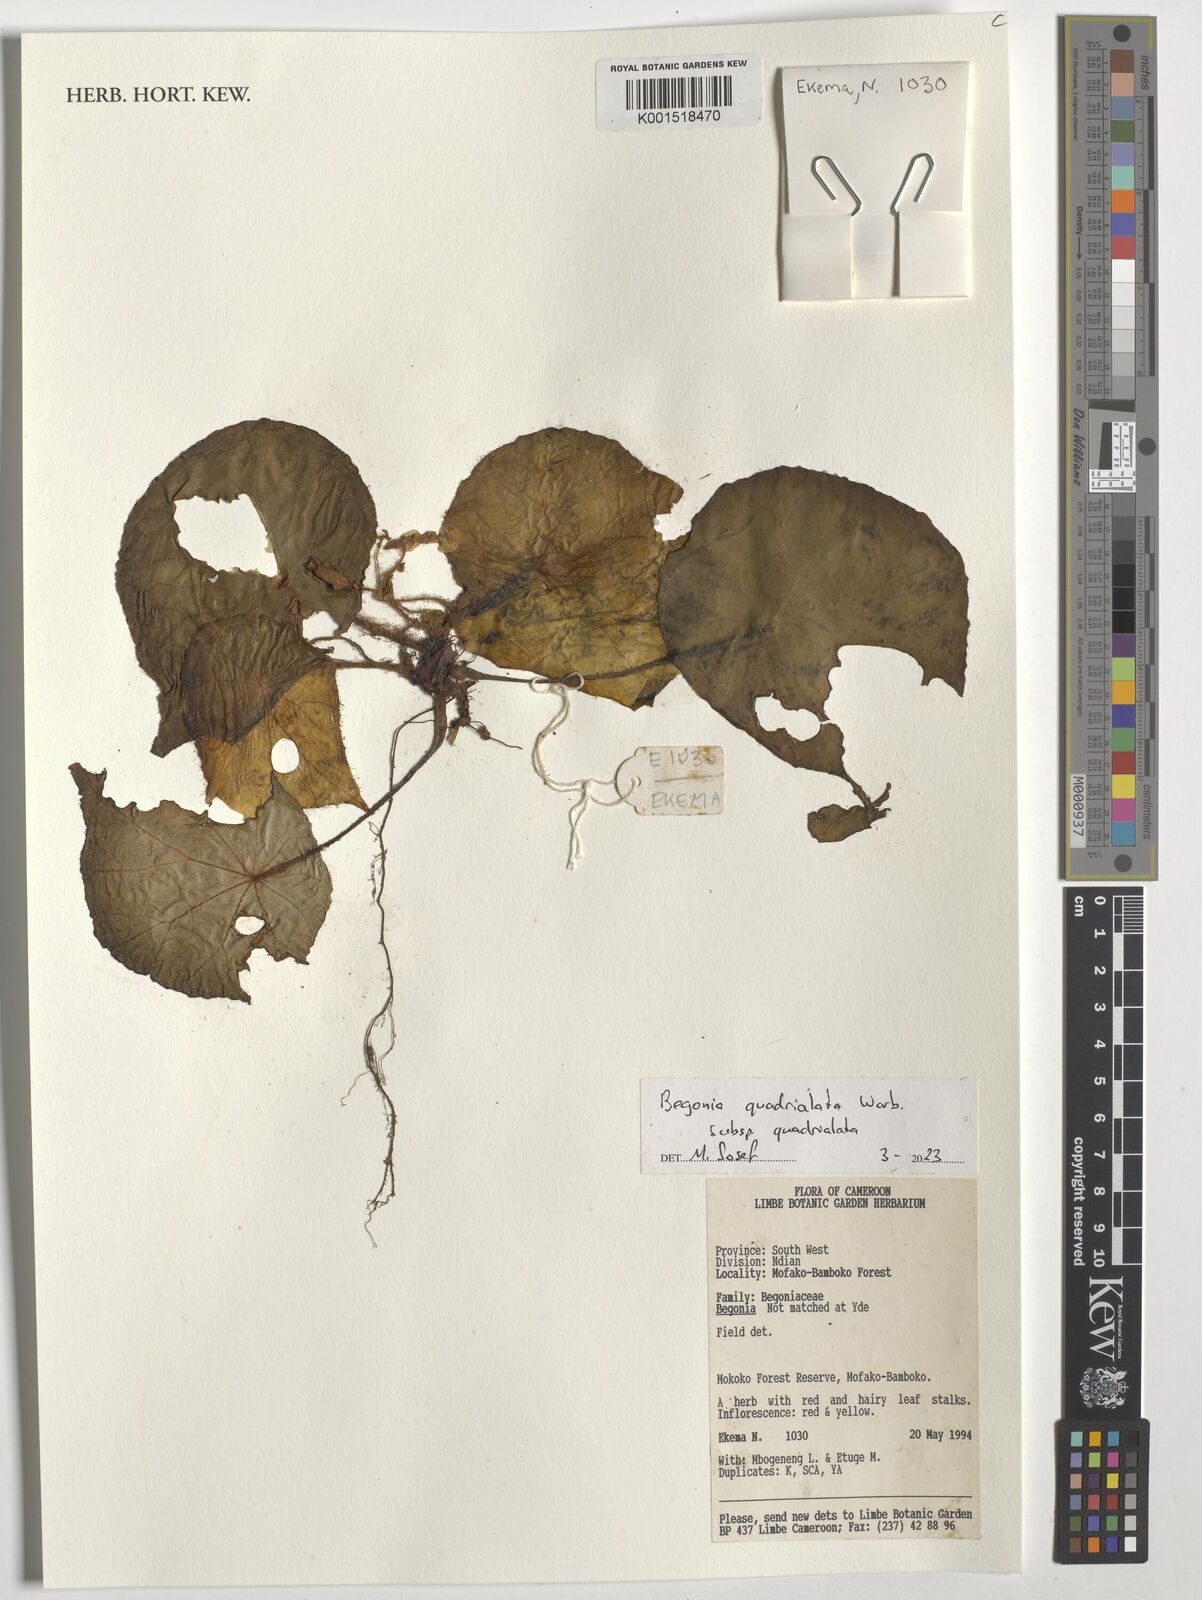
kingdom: Plantae
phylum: Tracheophyta
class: Magnoliopsida
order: Cucurbitales
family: Begoniaceae
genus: Begonia
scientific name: Begonia quadrialata
